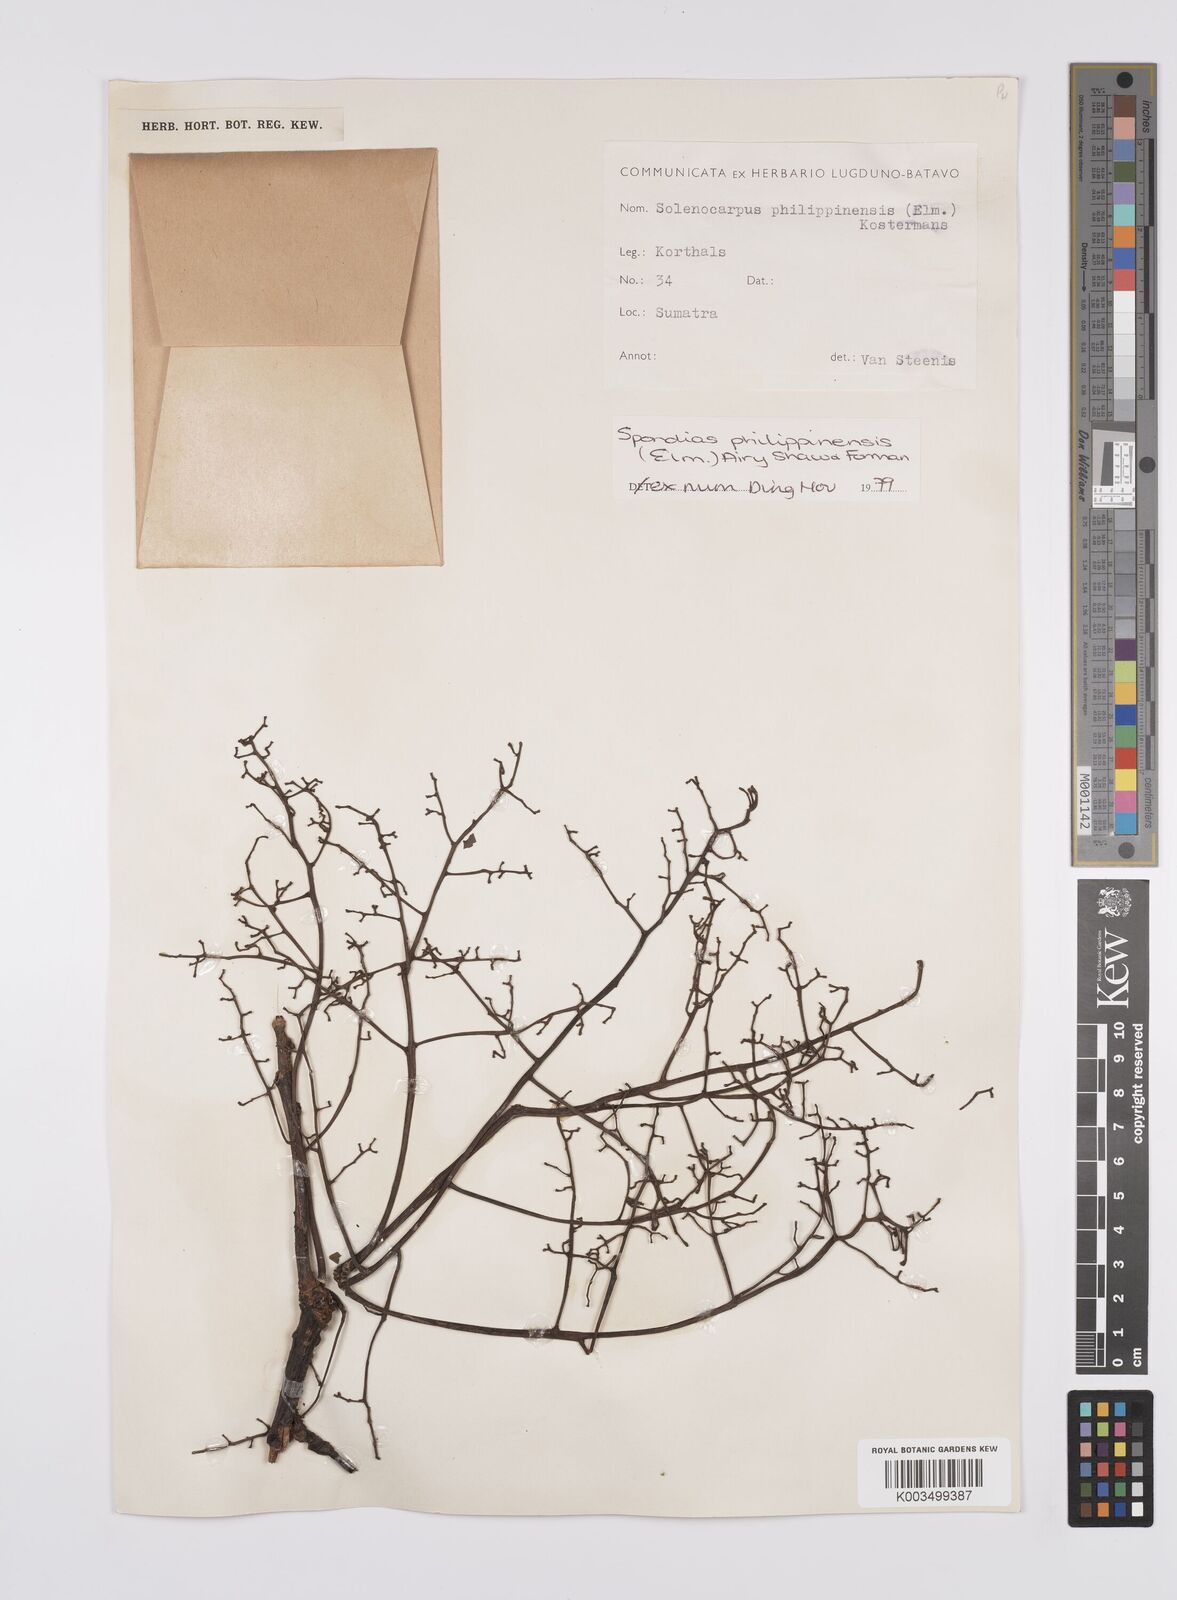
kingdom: Plantae
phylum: Tracheophyta
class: Magnoliopsida
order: Sapindales
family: Anacardiaceae
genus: Spondias
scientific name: Spondias philippinensis
